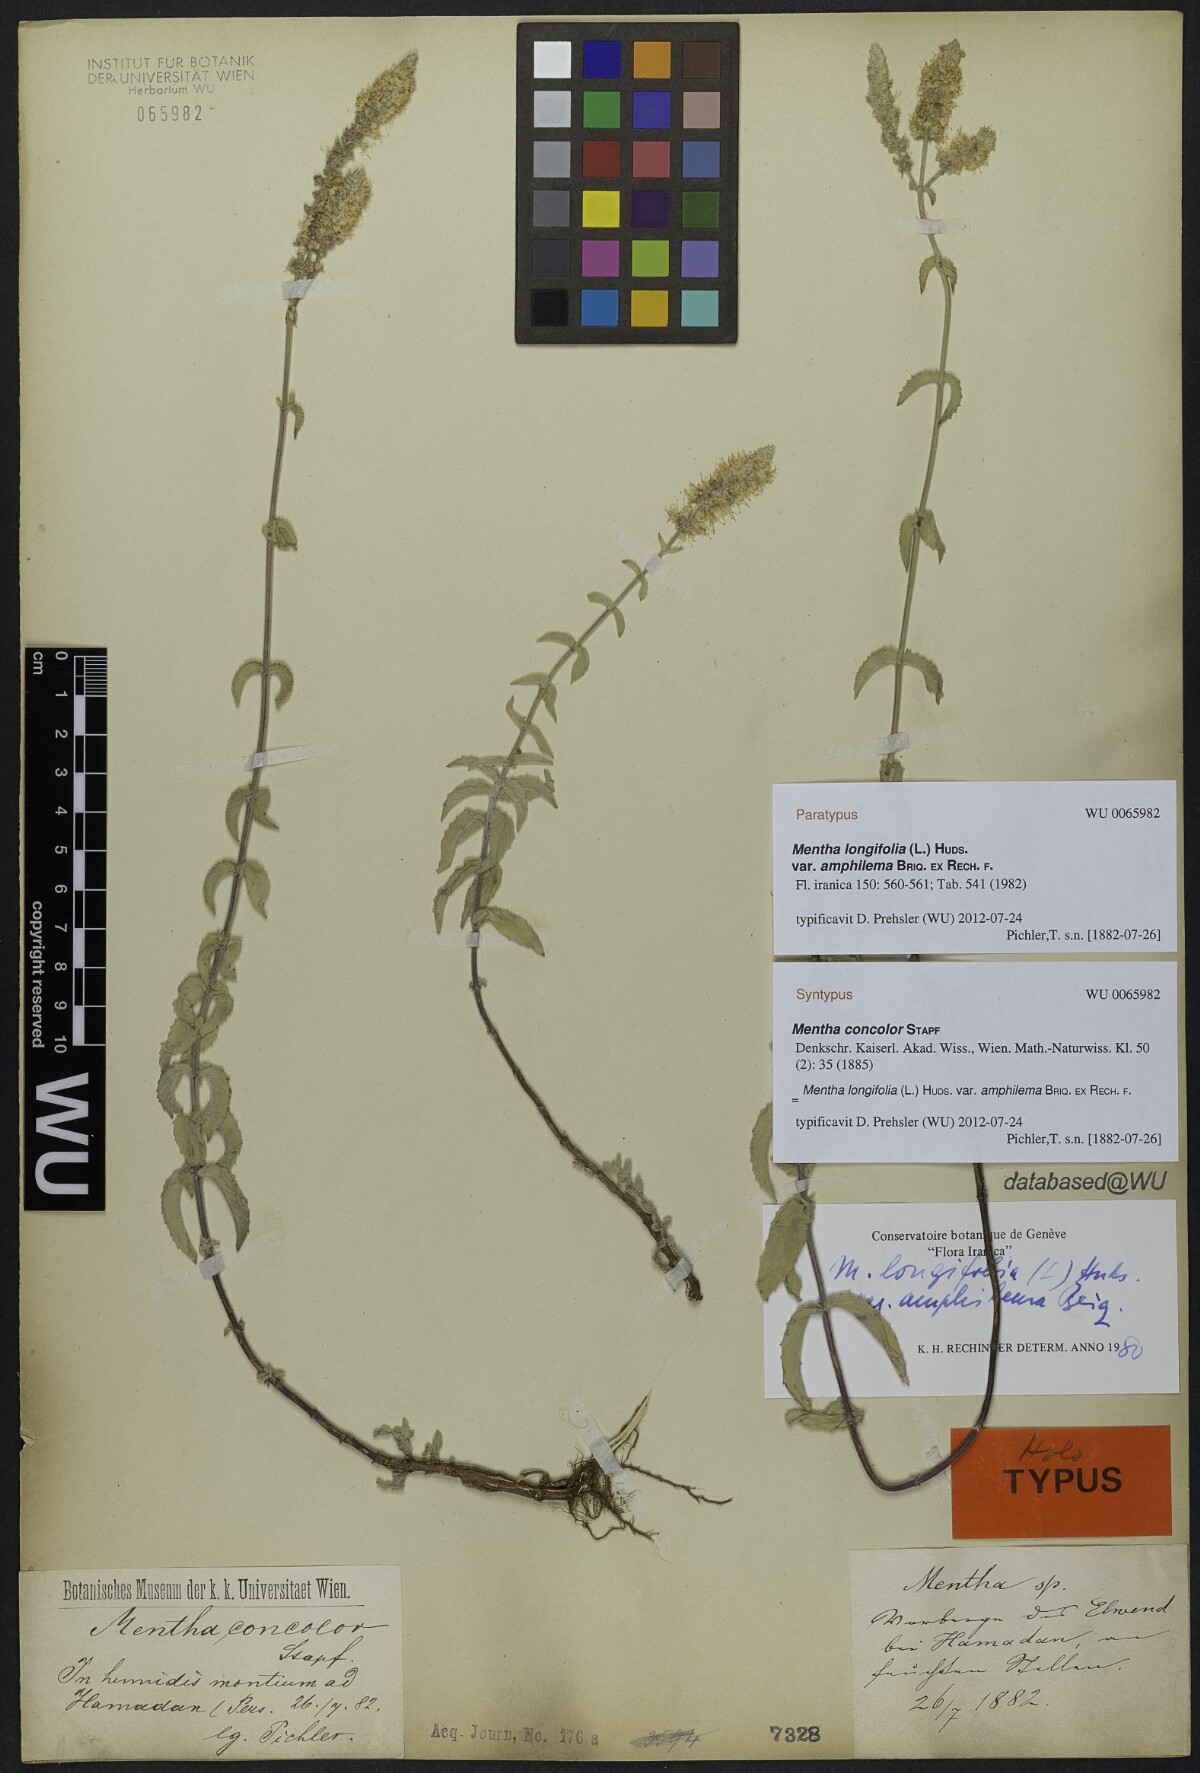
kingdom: Plantae
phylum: Tracheophyta
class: Magnoliopsida
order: Lamiales
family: Lamiaceae
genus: Mentha
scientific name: Mentha longifolia
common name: Horse mint
